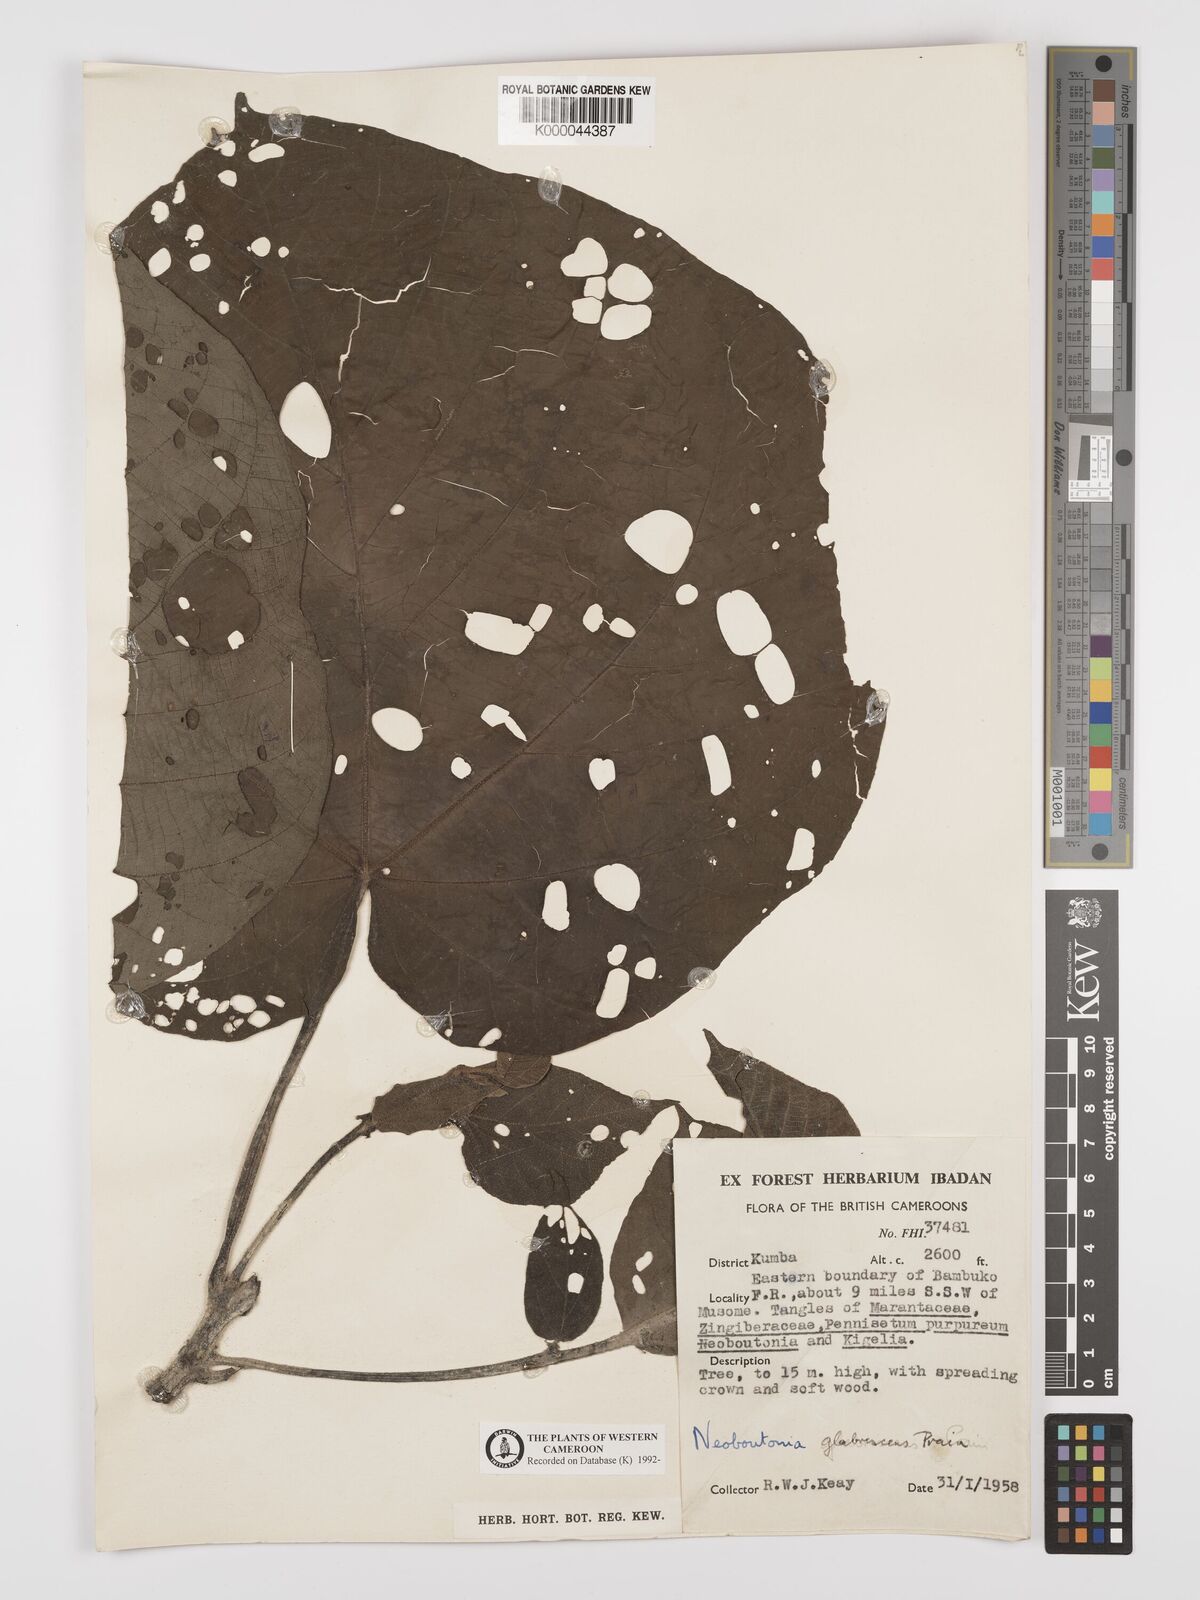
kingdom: Plantae
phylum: Tracheophyta
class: Magnoliopsida
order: Malpighiales
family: Euphorbiaceae
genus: Neoboutonia
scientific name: Neoboutonia mannii
